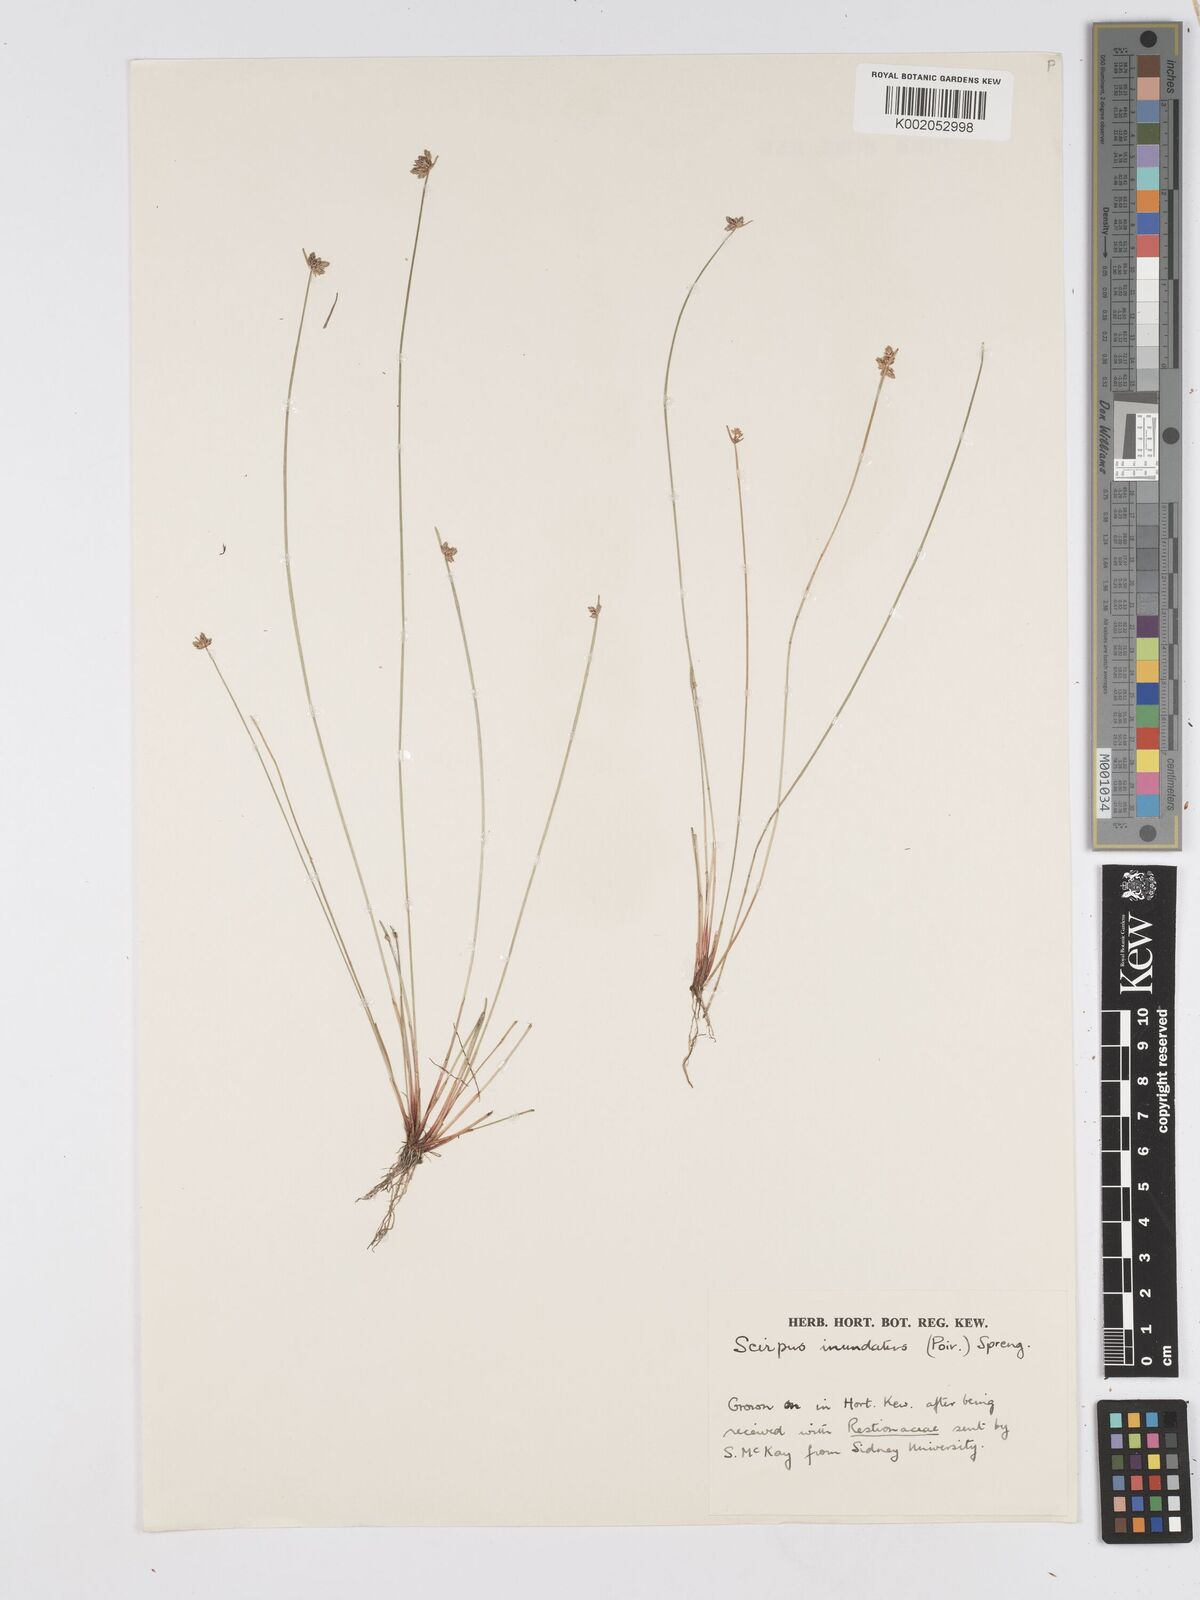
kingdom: Plantae
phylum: Tracheophyta
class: Liliopsida
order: Poales
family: Cyperaceae
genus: Isolepis
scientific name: Isolepis inundata
